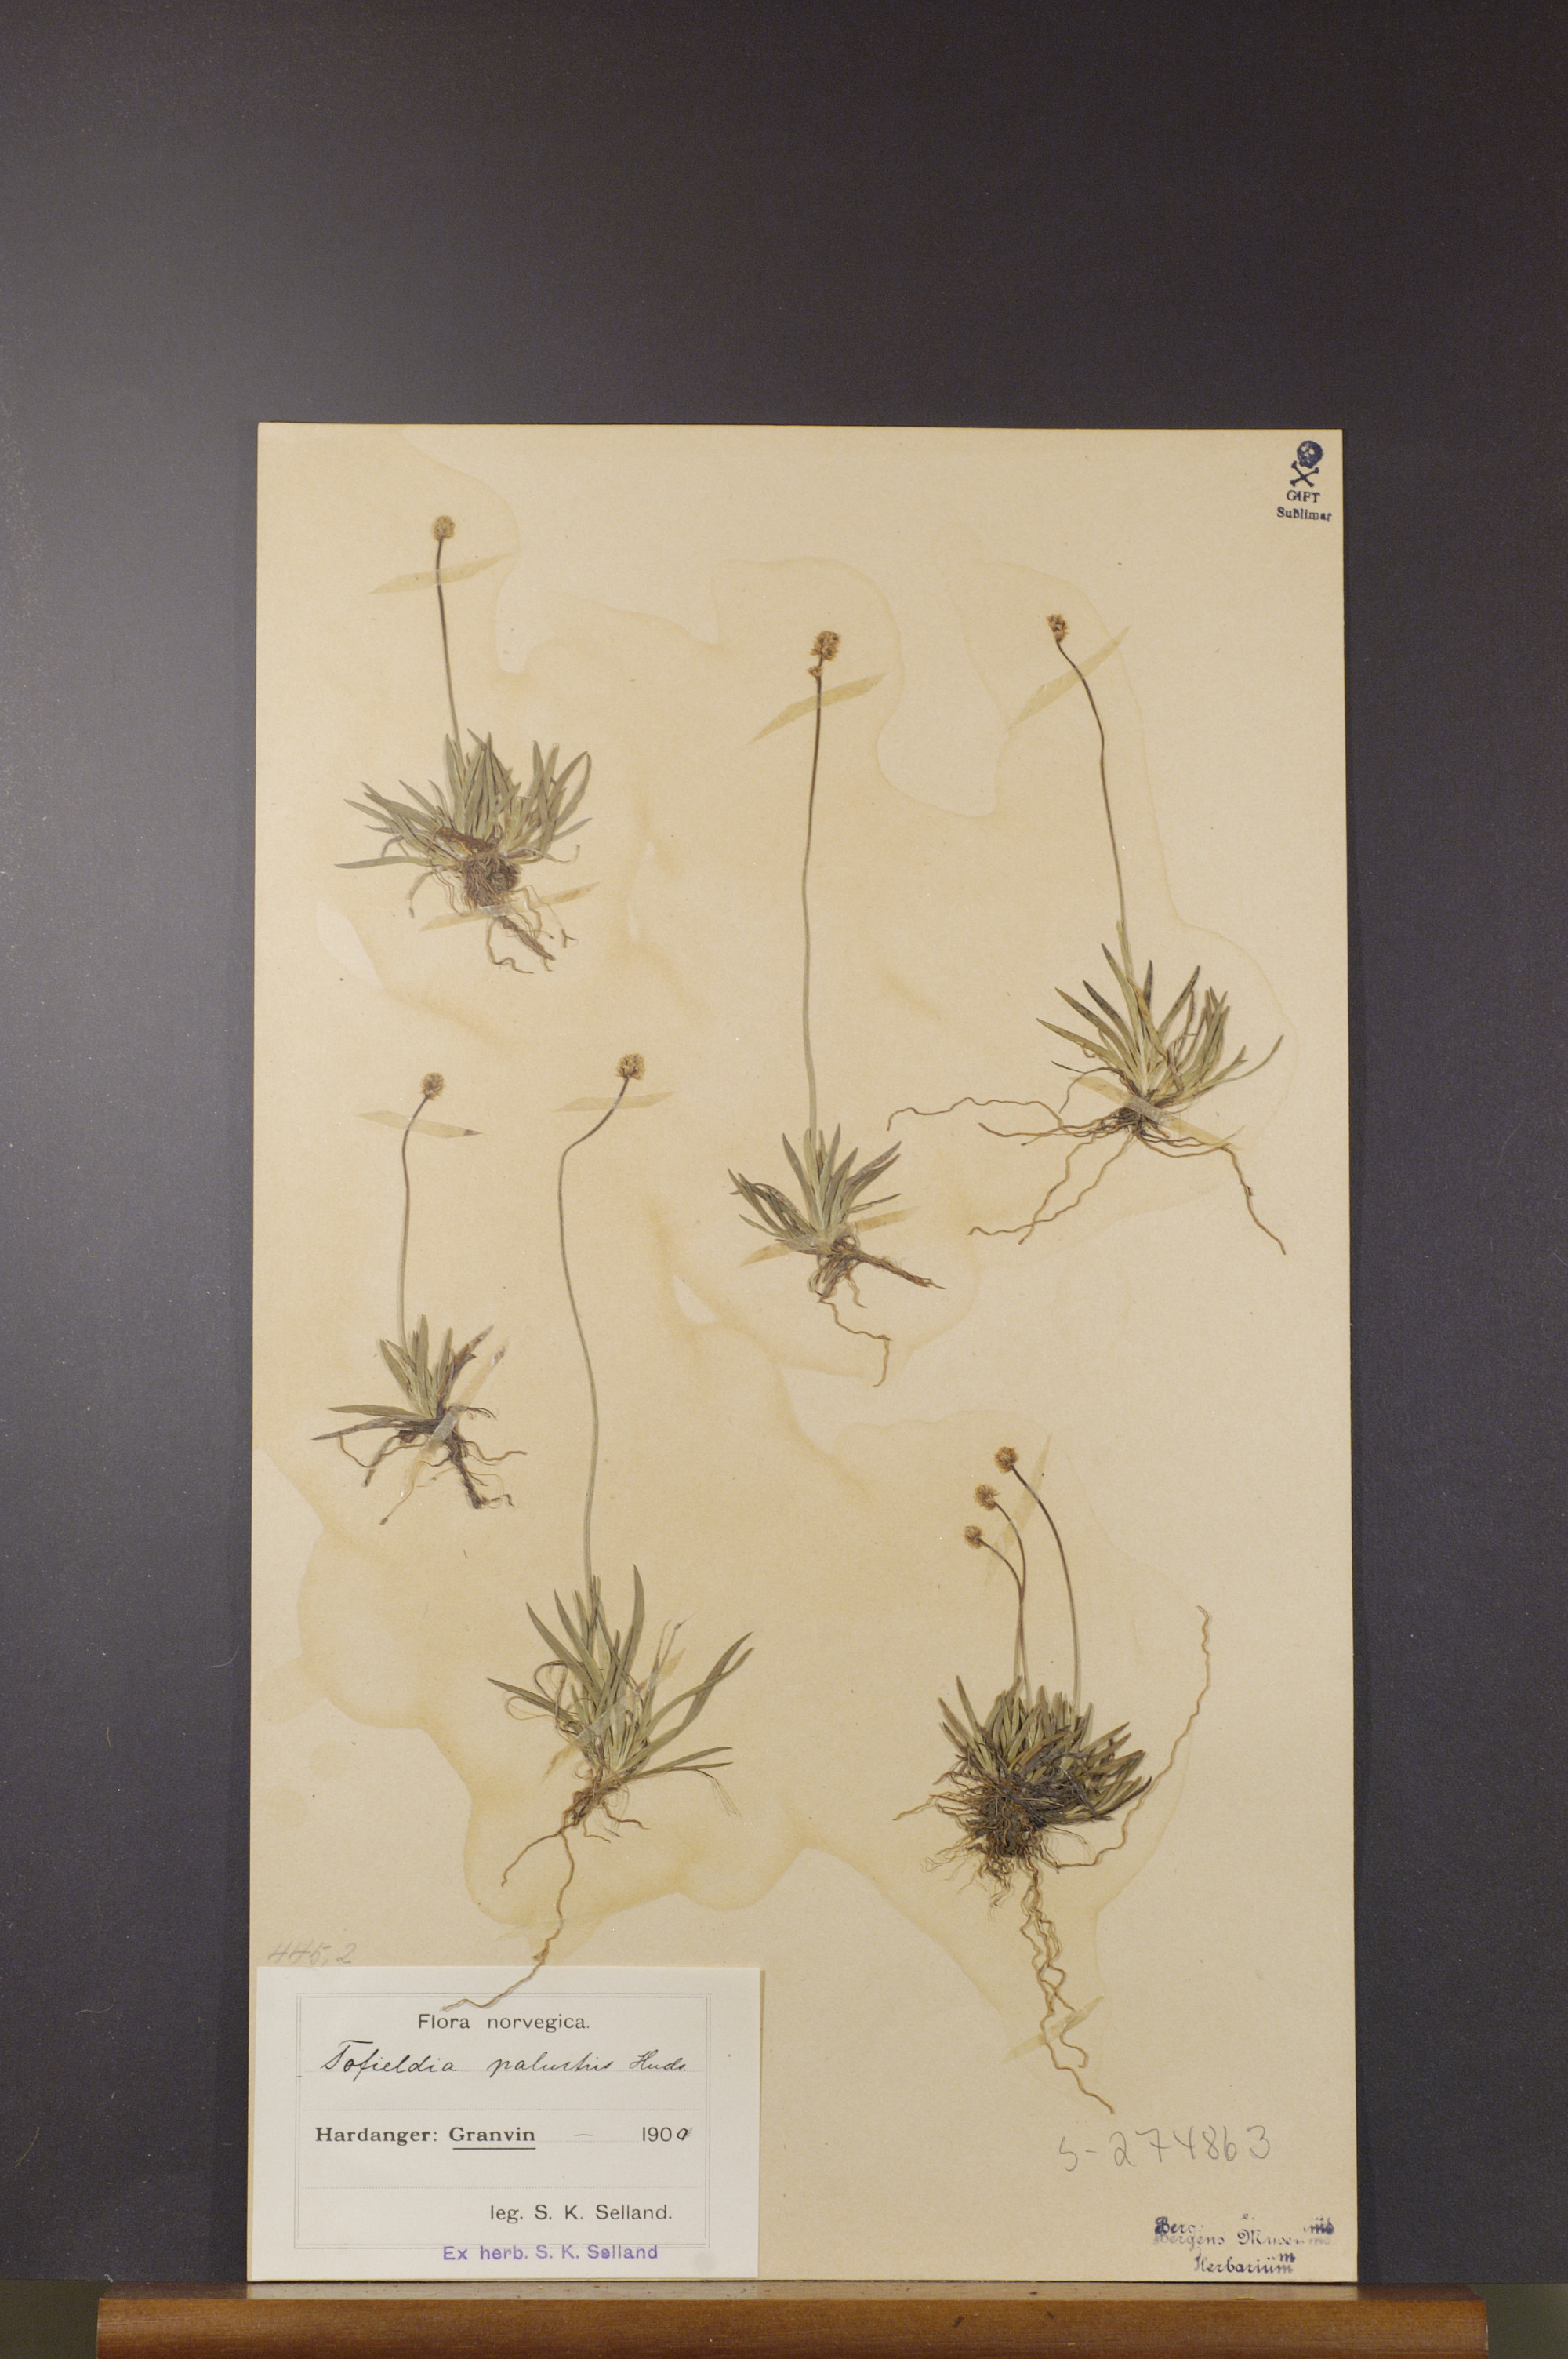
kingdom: Plantae
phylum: Tracheophyta
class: Liliopsida
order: Alismatales
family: Tofieldiaceae
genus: Tofieldia
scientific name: Tofieldia pusilla
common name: Scottish false asphodel
